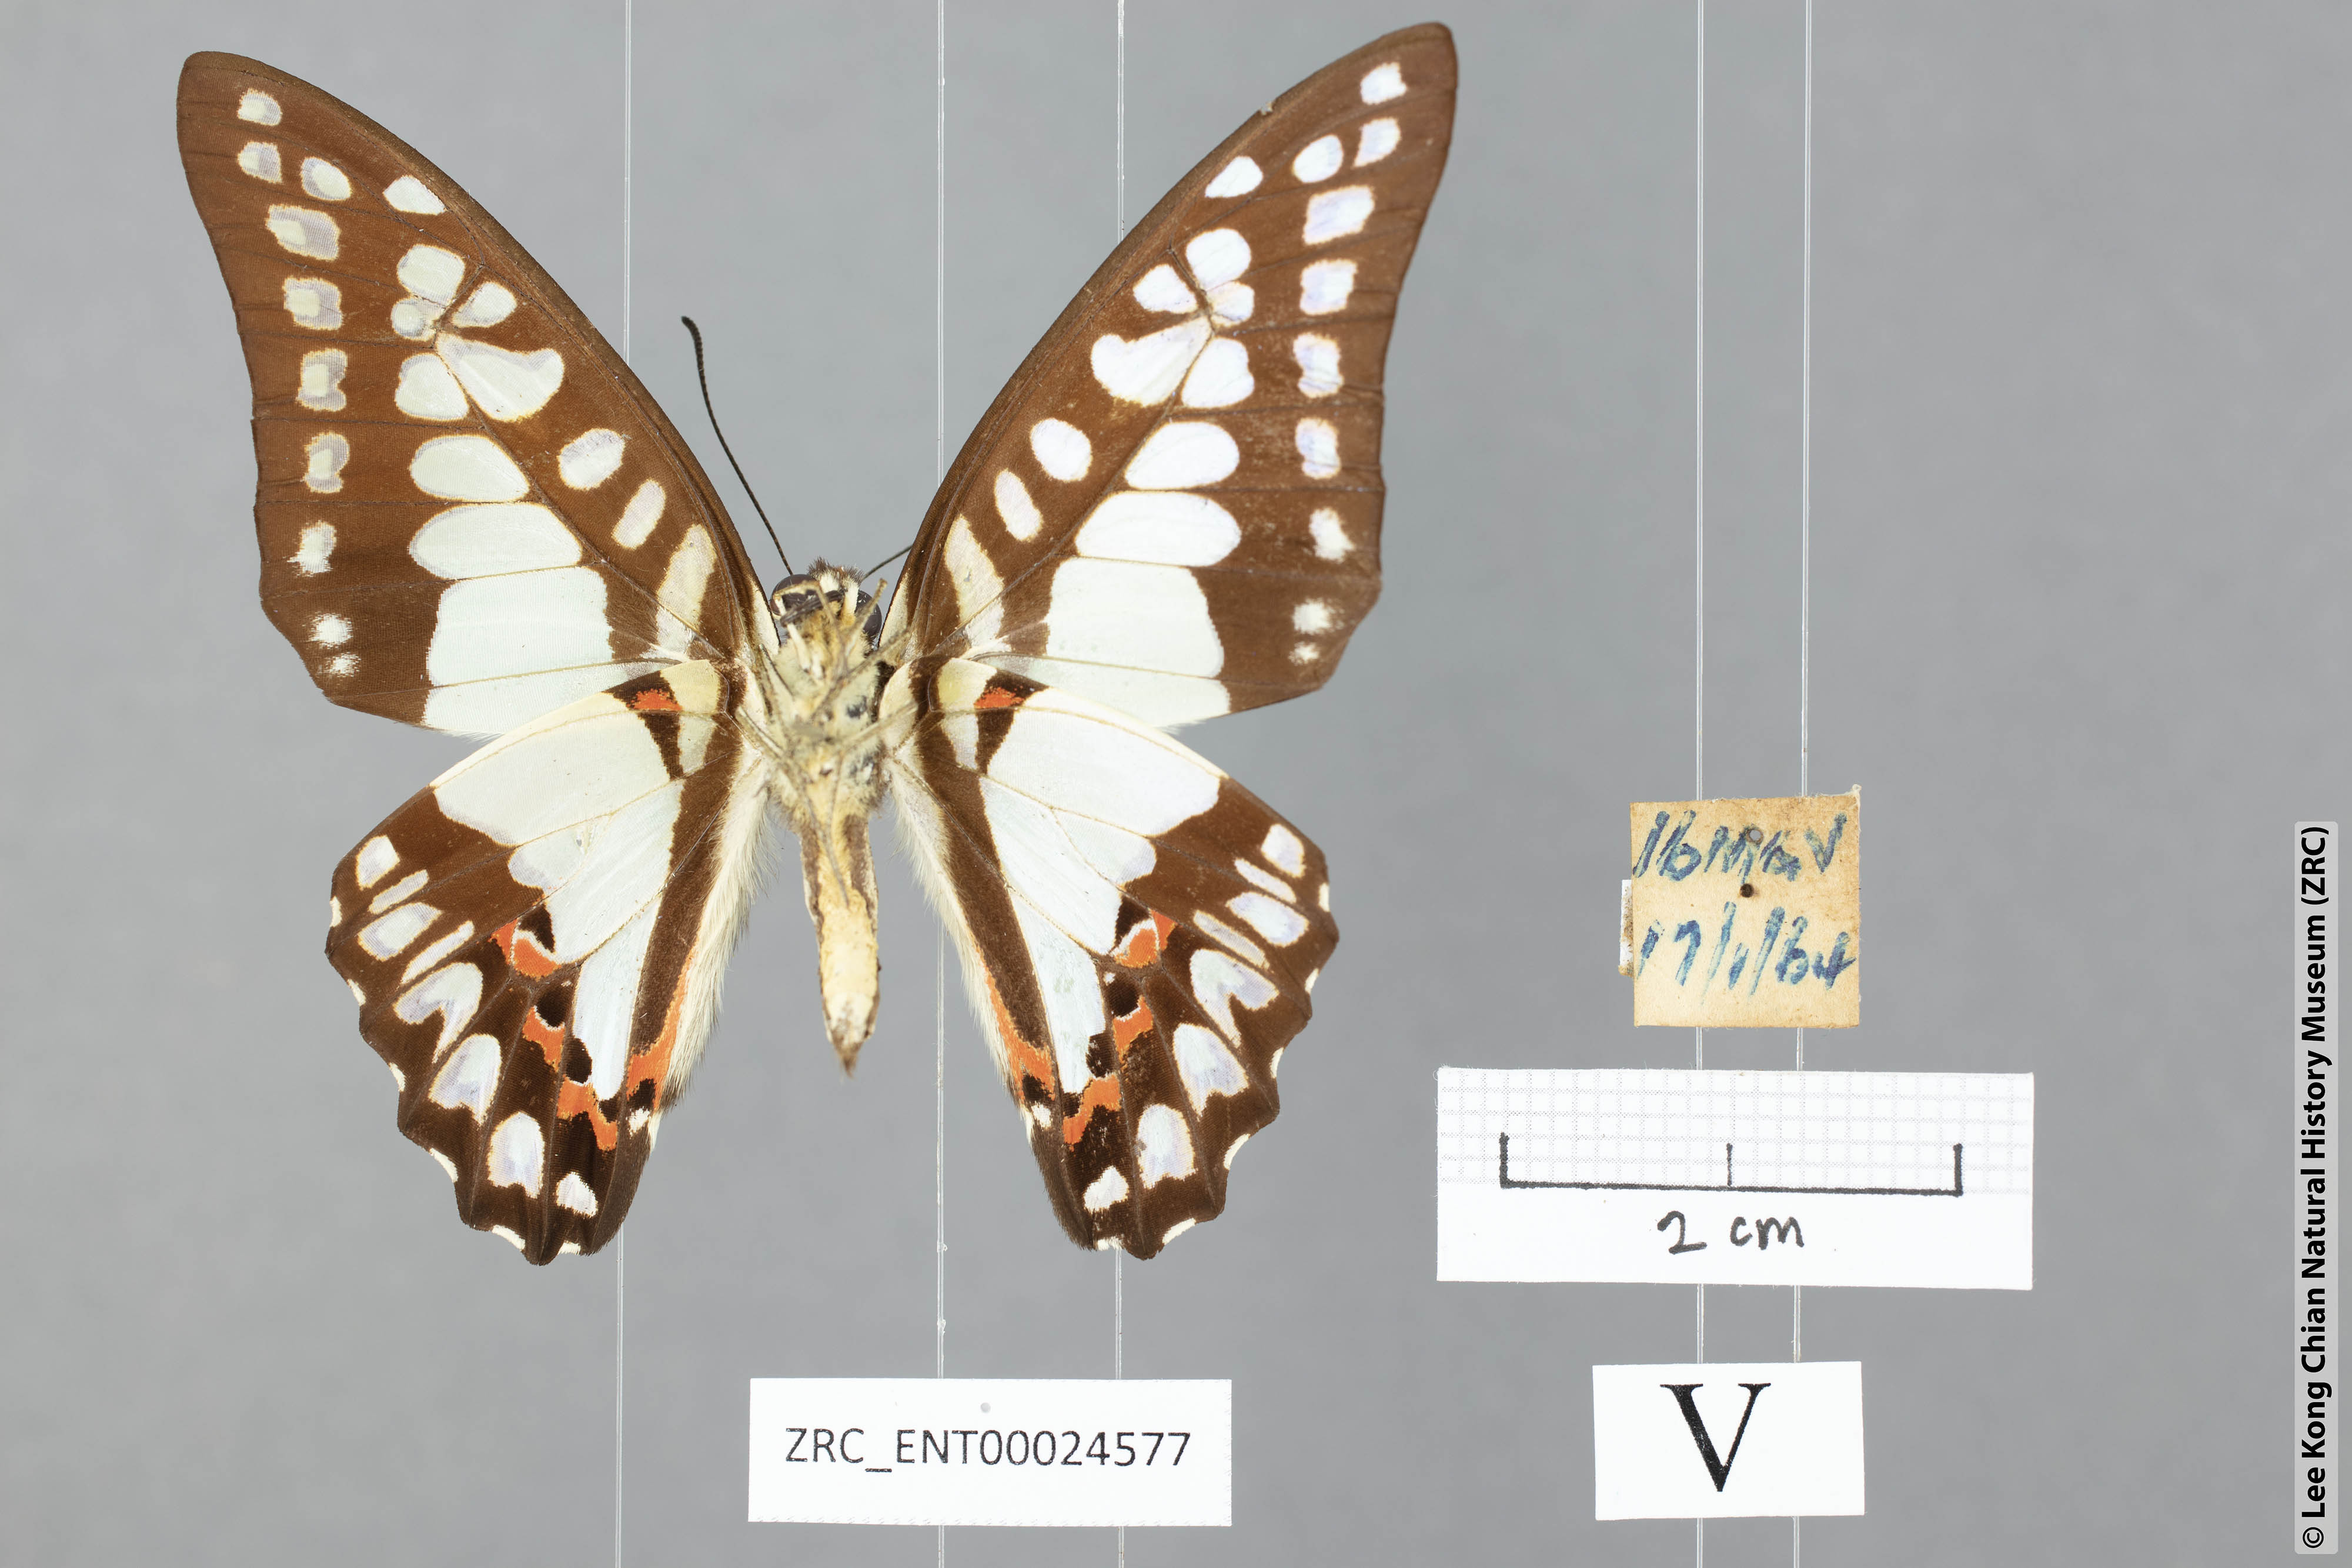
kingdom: Animalia
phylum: Arthropoda
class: Insecta
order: Lepidoptera
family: Papilionidae
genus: Graphium
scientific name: Graphium eurypylus
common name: Great jay
